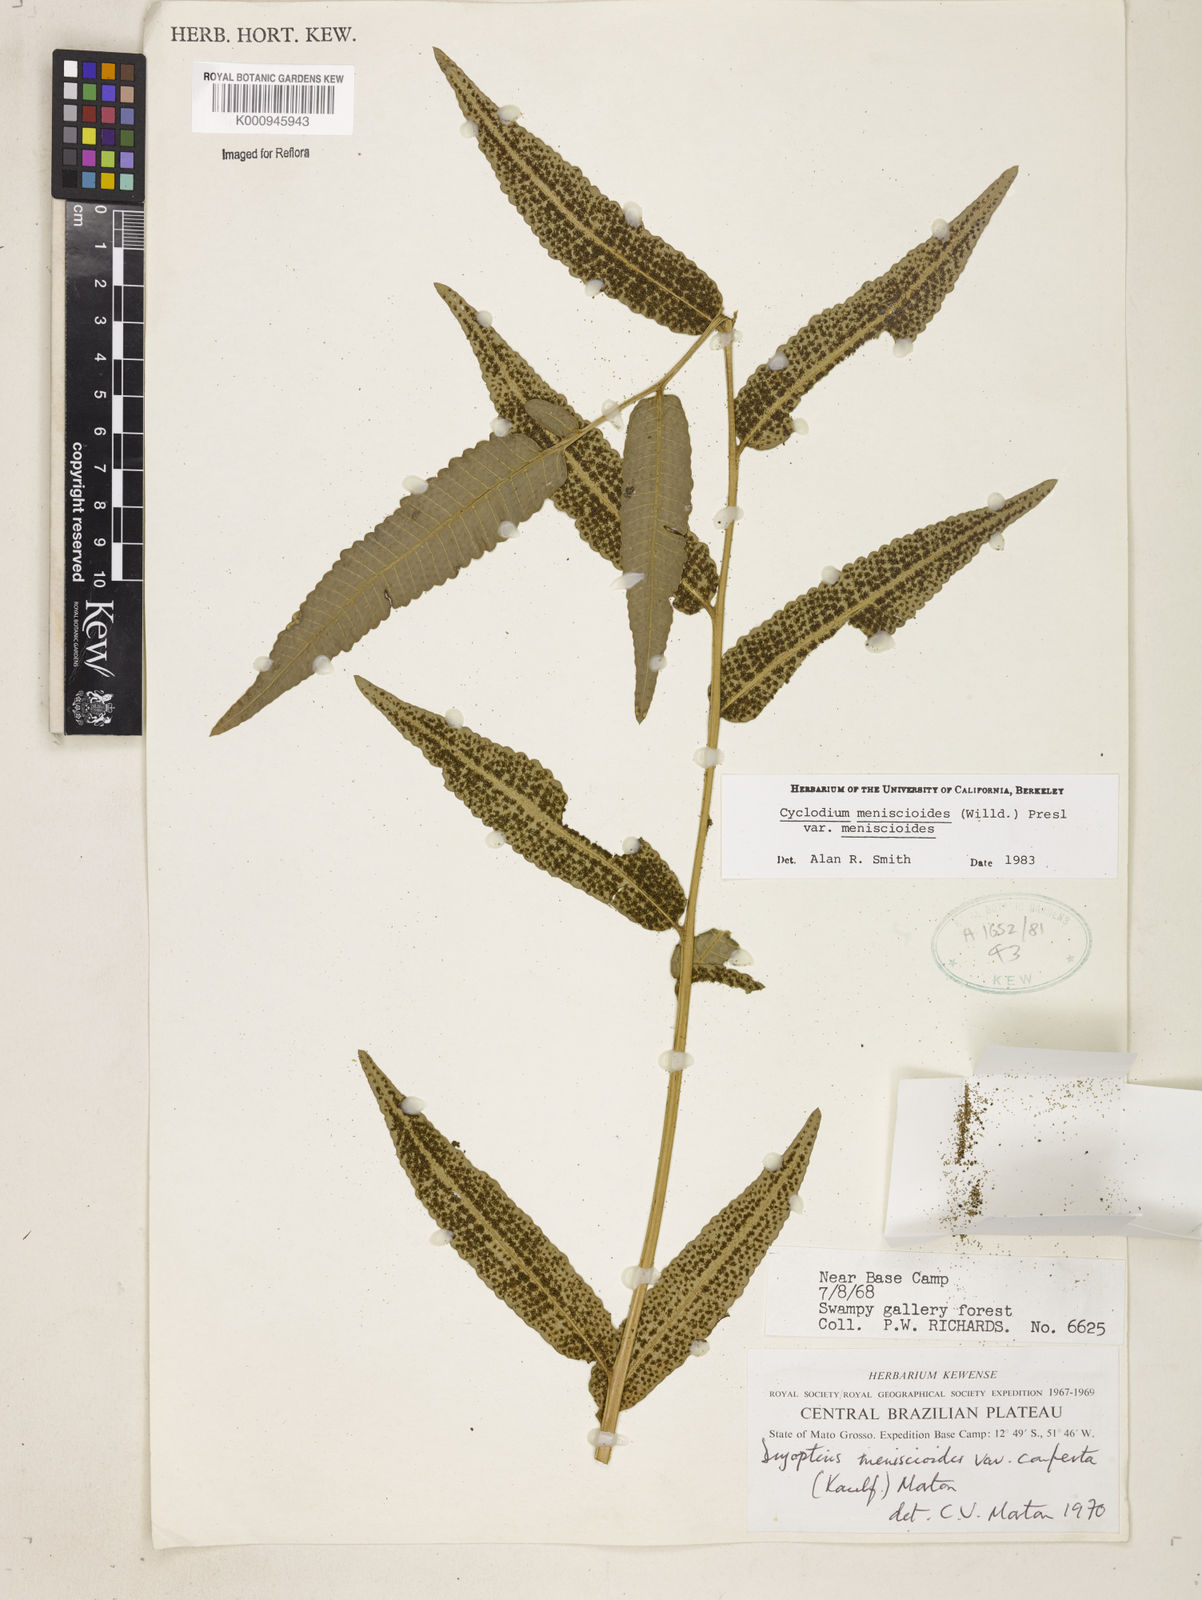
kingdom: Plantae
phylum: Tracheophyta
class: Polypodiopsida
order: Polypodiales
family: Dryopteridaceae
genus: Cyclodium
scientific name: Cyclodium meniscioides
